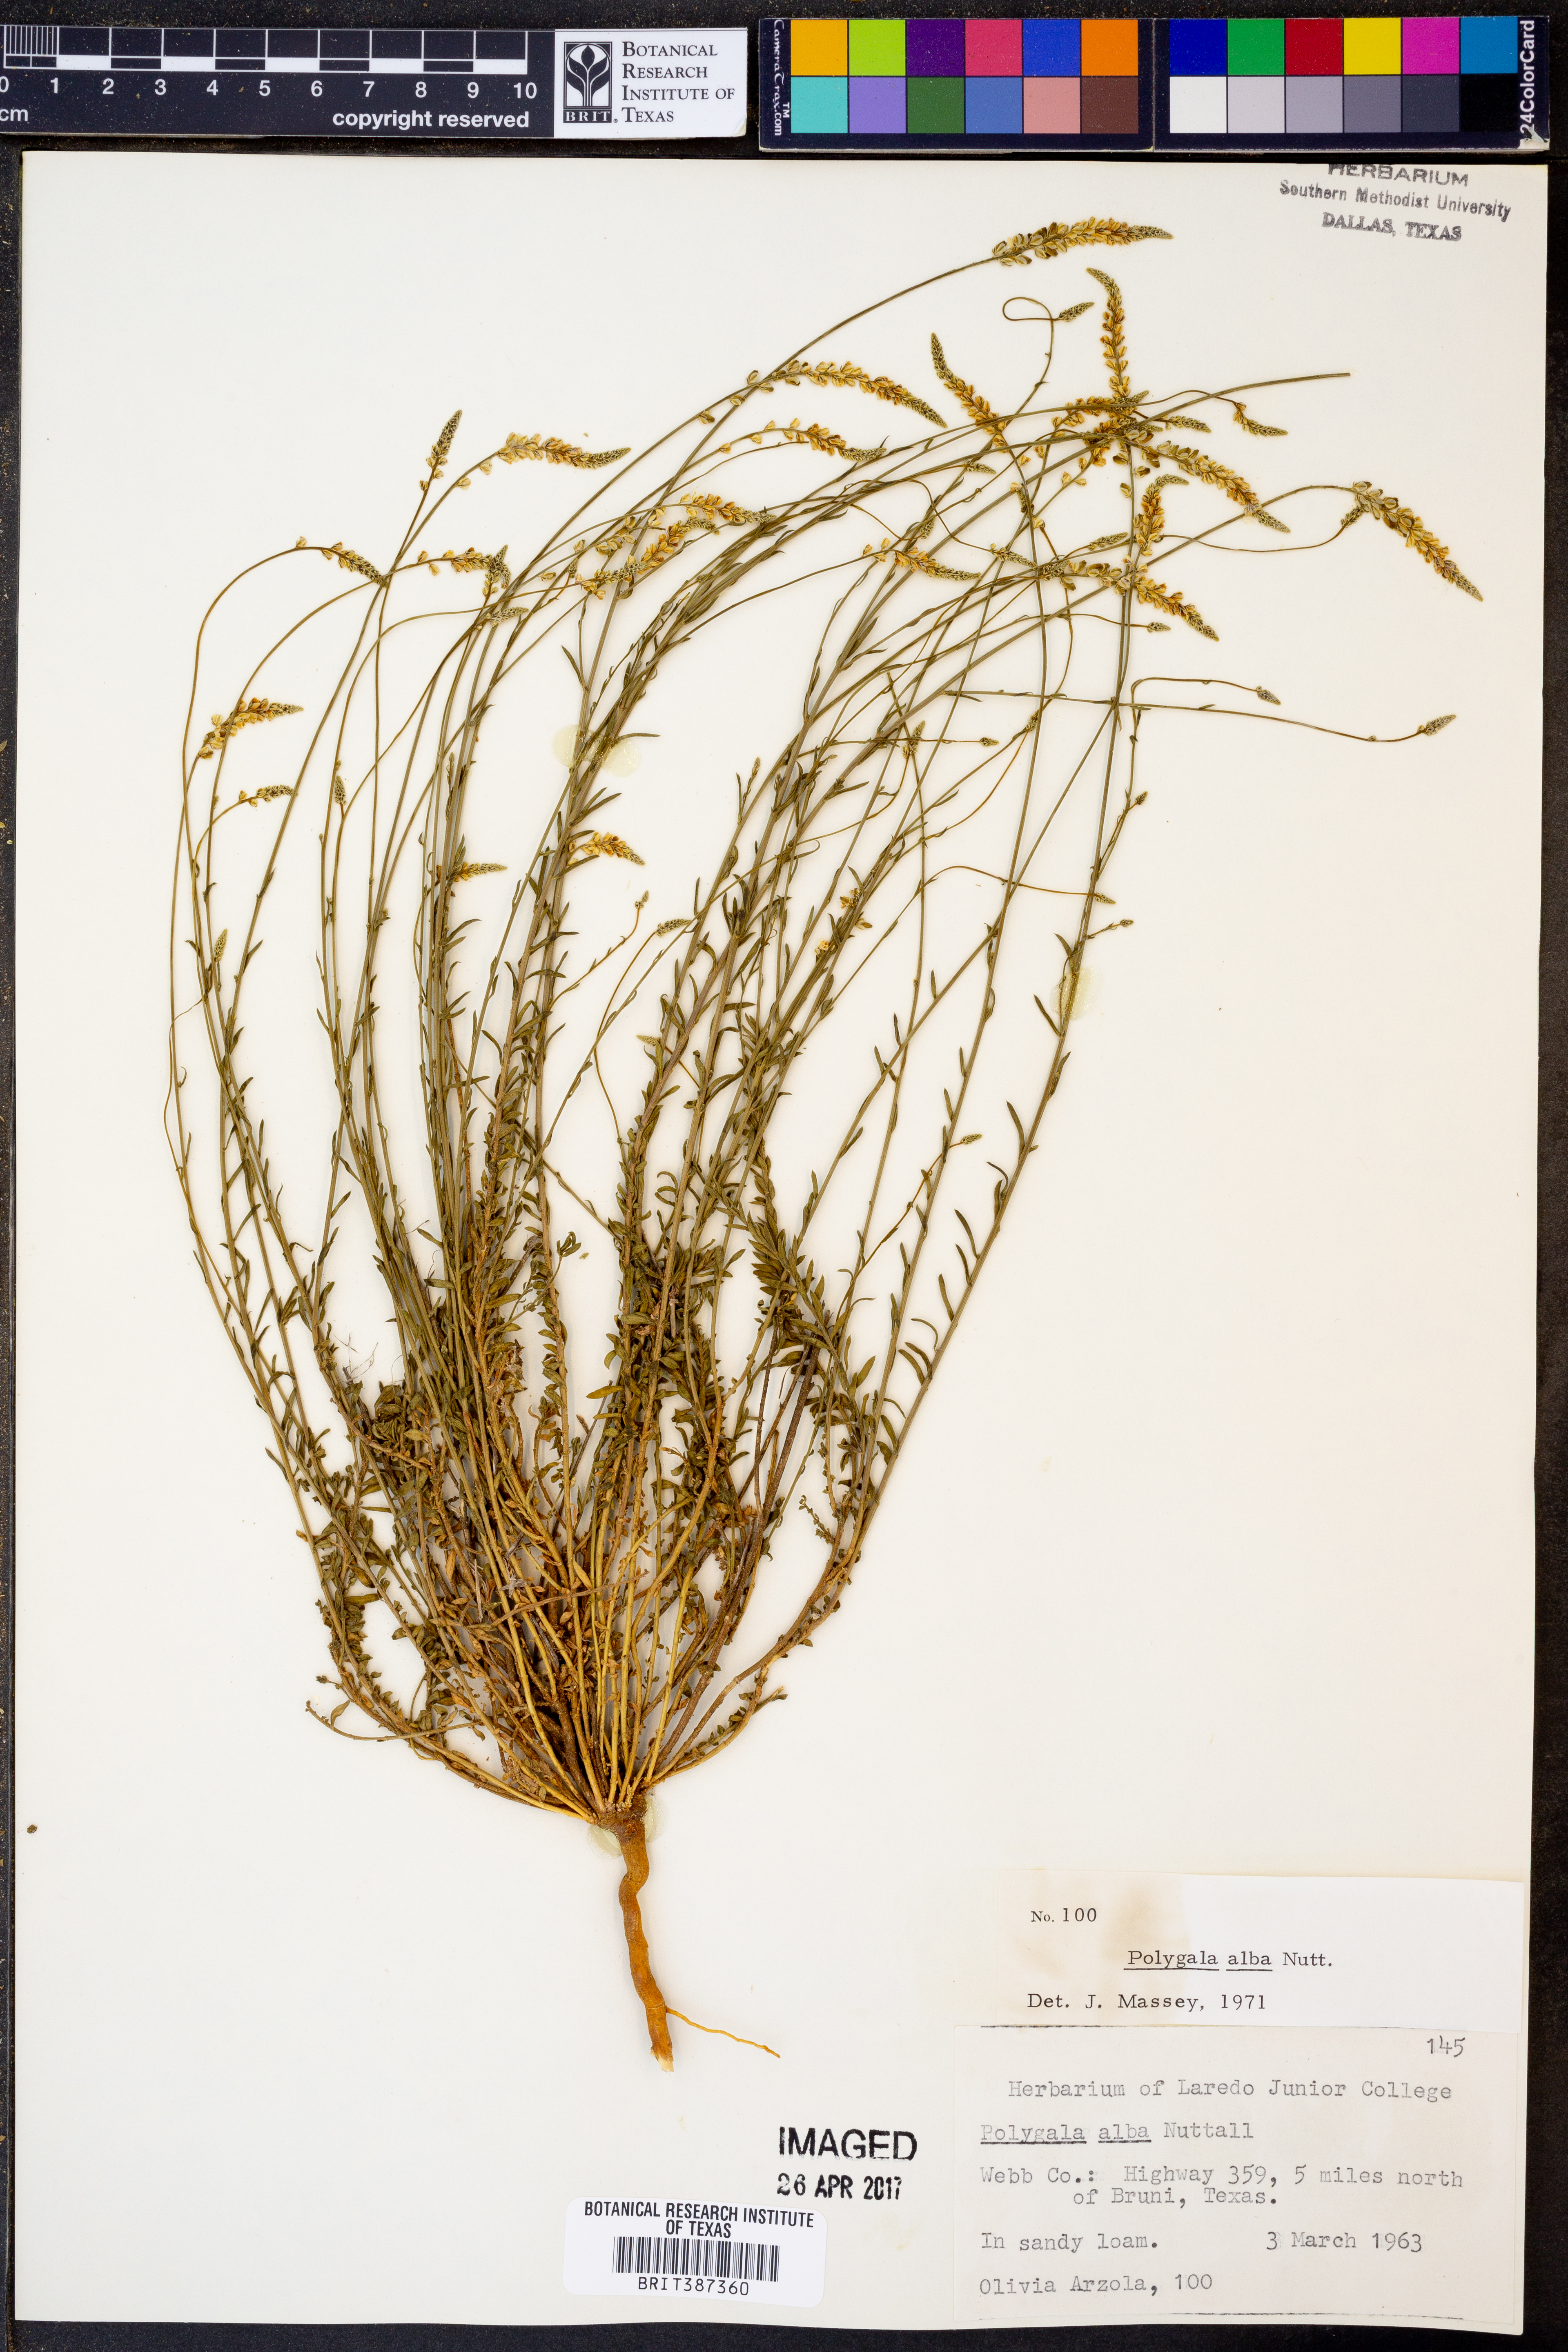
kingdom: Plantae
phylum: Tracheophyta
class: Magnoliopsida
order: Fabales
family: Polygalaceae
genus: Polygala
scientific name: Polygala alba
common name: White milkwort
